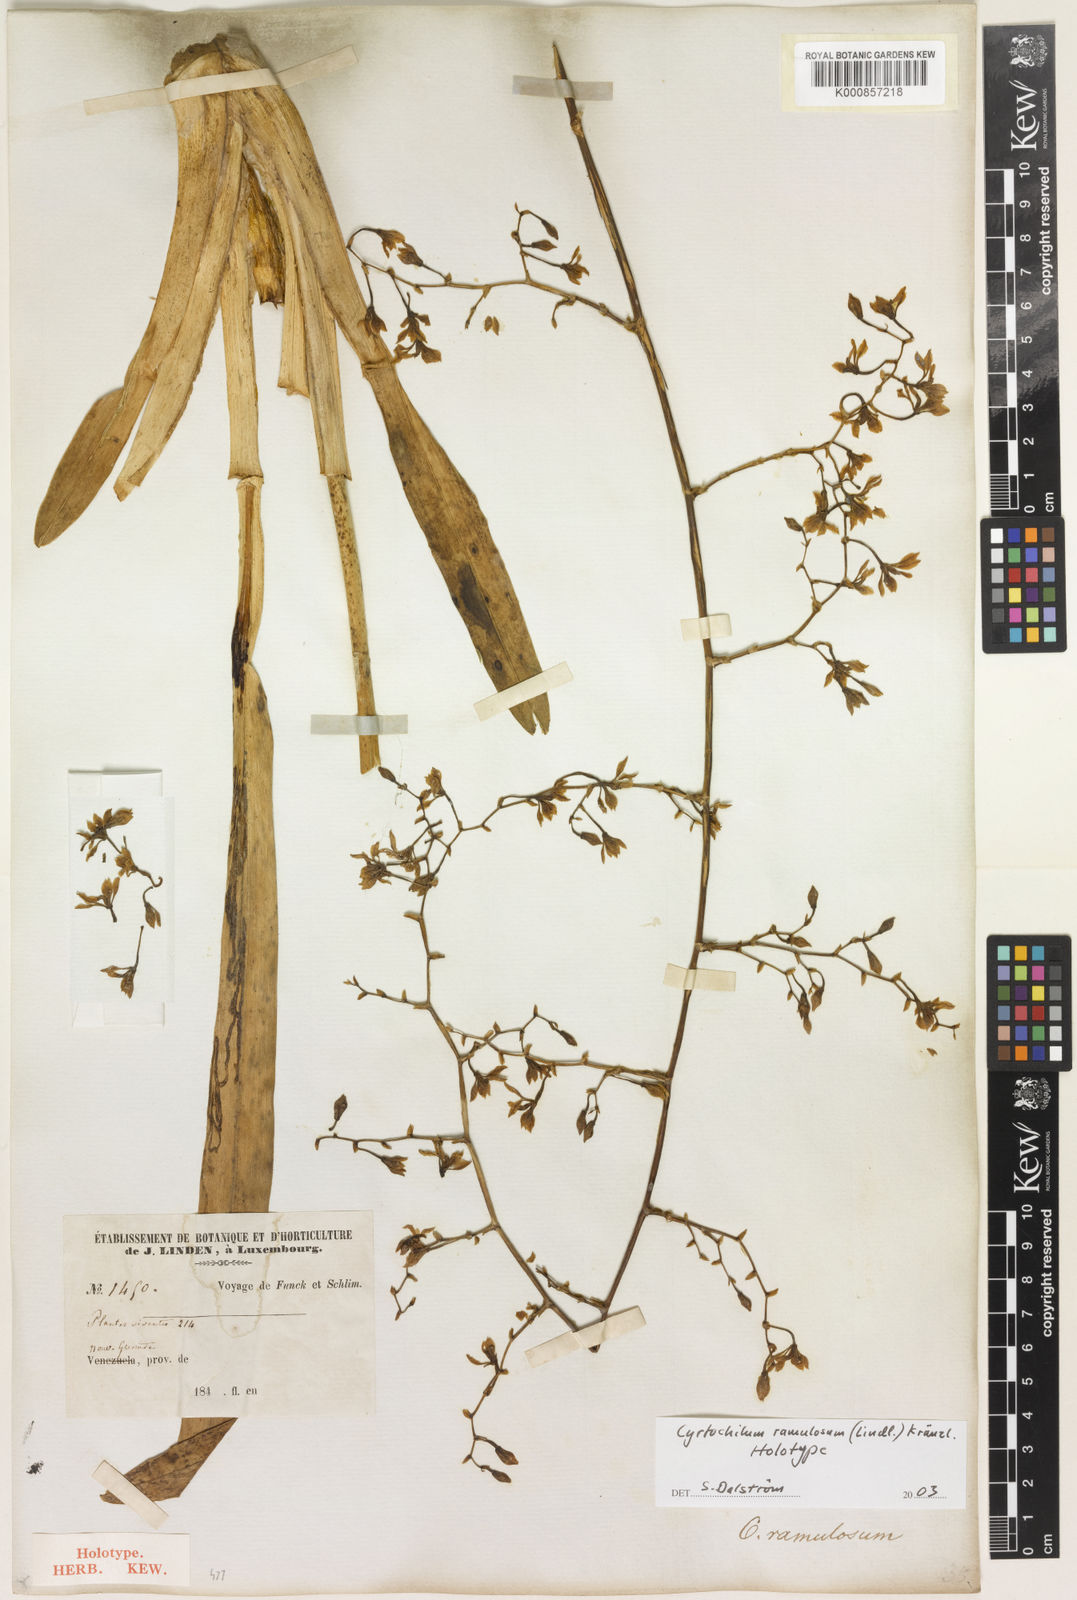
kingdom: Plantae
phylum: Tracheophyta
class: Liliopsida
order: Asparagales
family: Orchidaceae
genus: Cyrtochilum
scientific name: Cyrtochilum densiflorum
